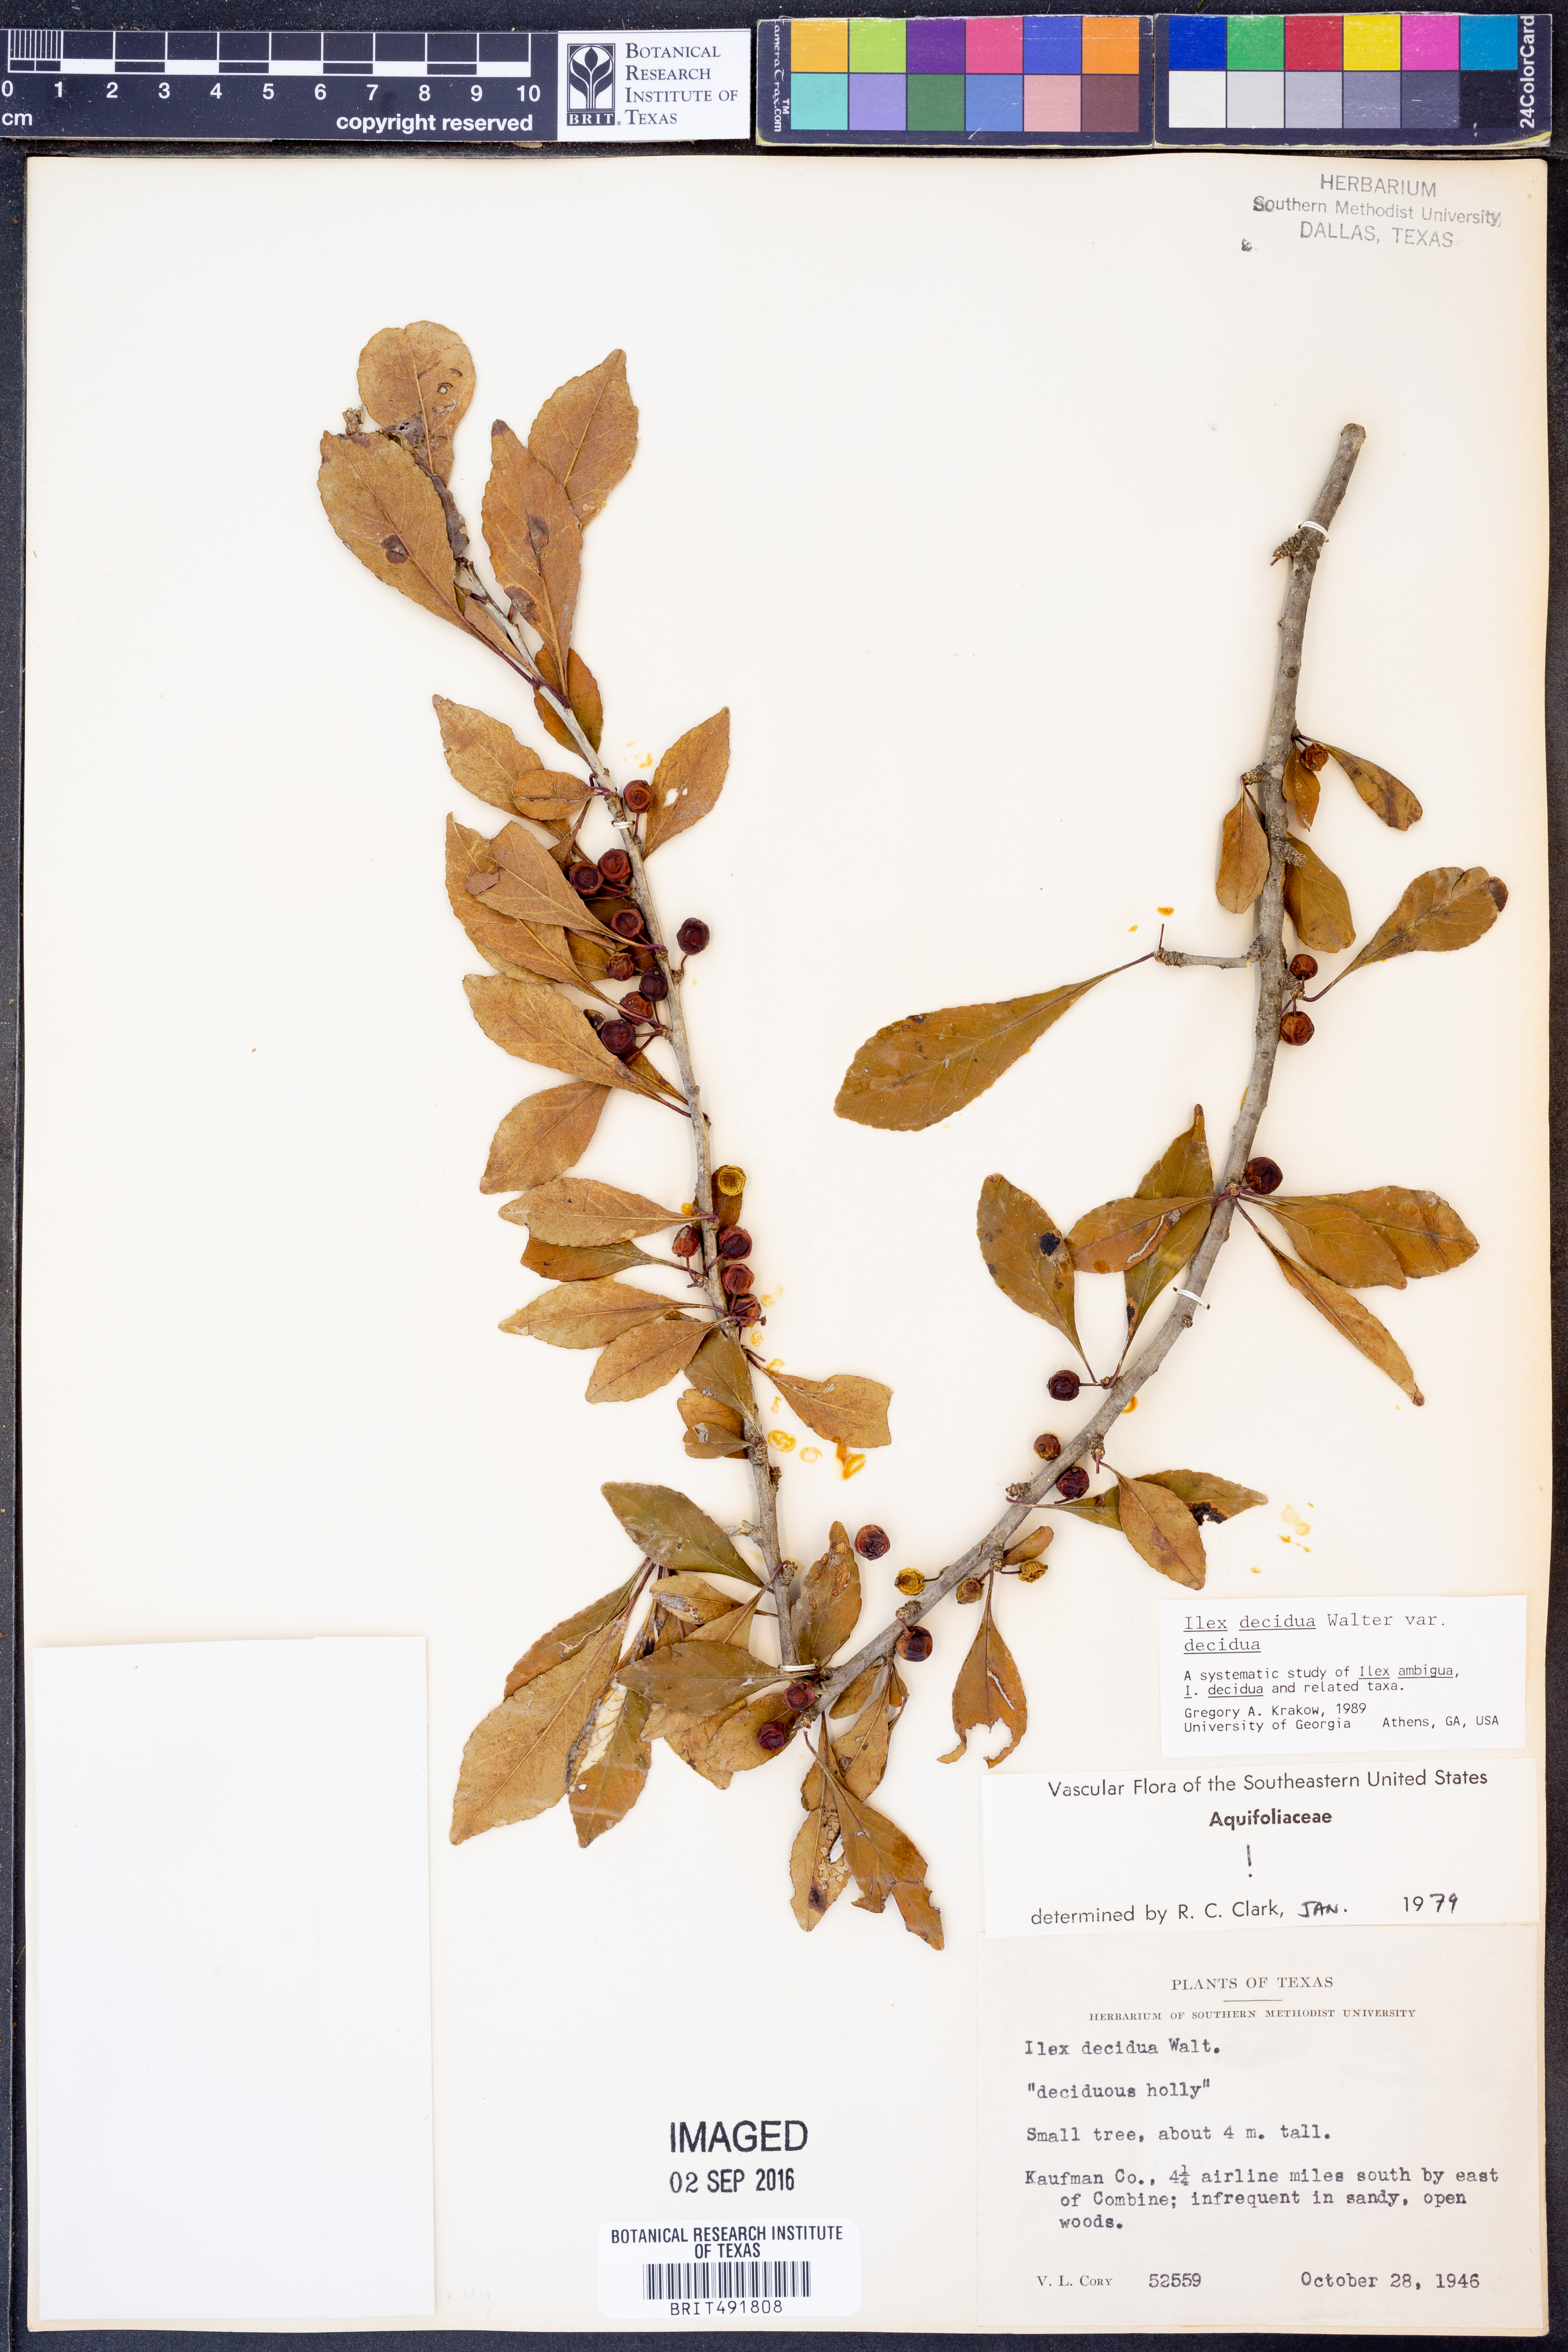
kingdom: Plantae
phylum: Tracheophyta
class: Magnoliopsida
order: Aquifoliales
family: Aquifoliaceae
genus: Ilex
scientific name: Ilex decidua
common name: Possum-haw
